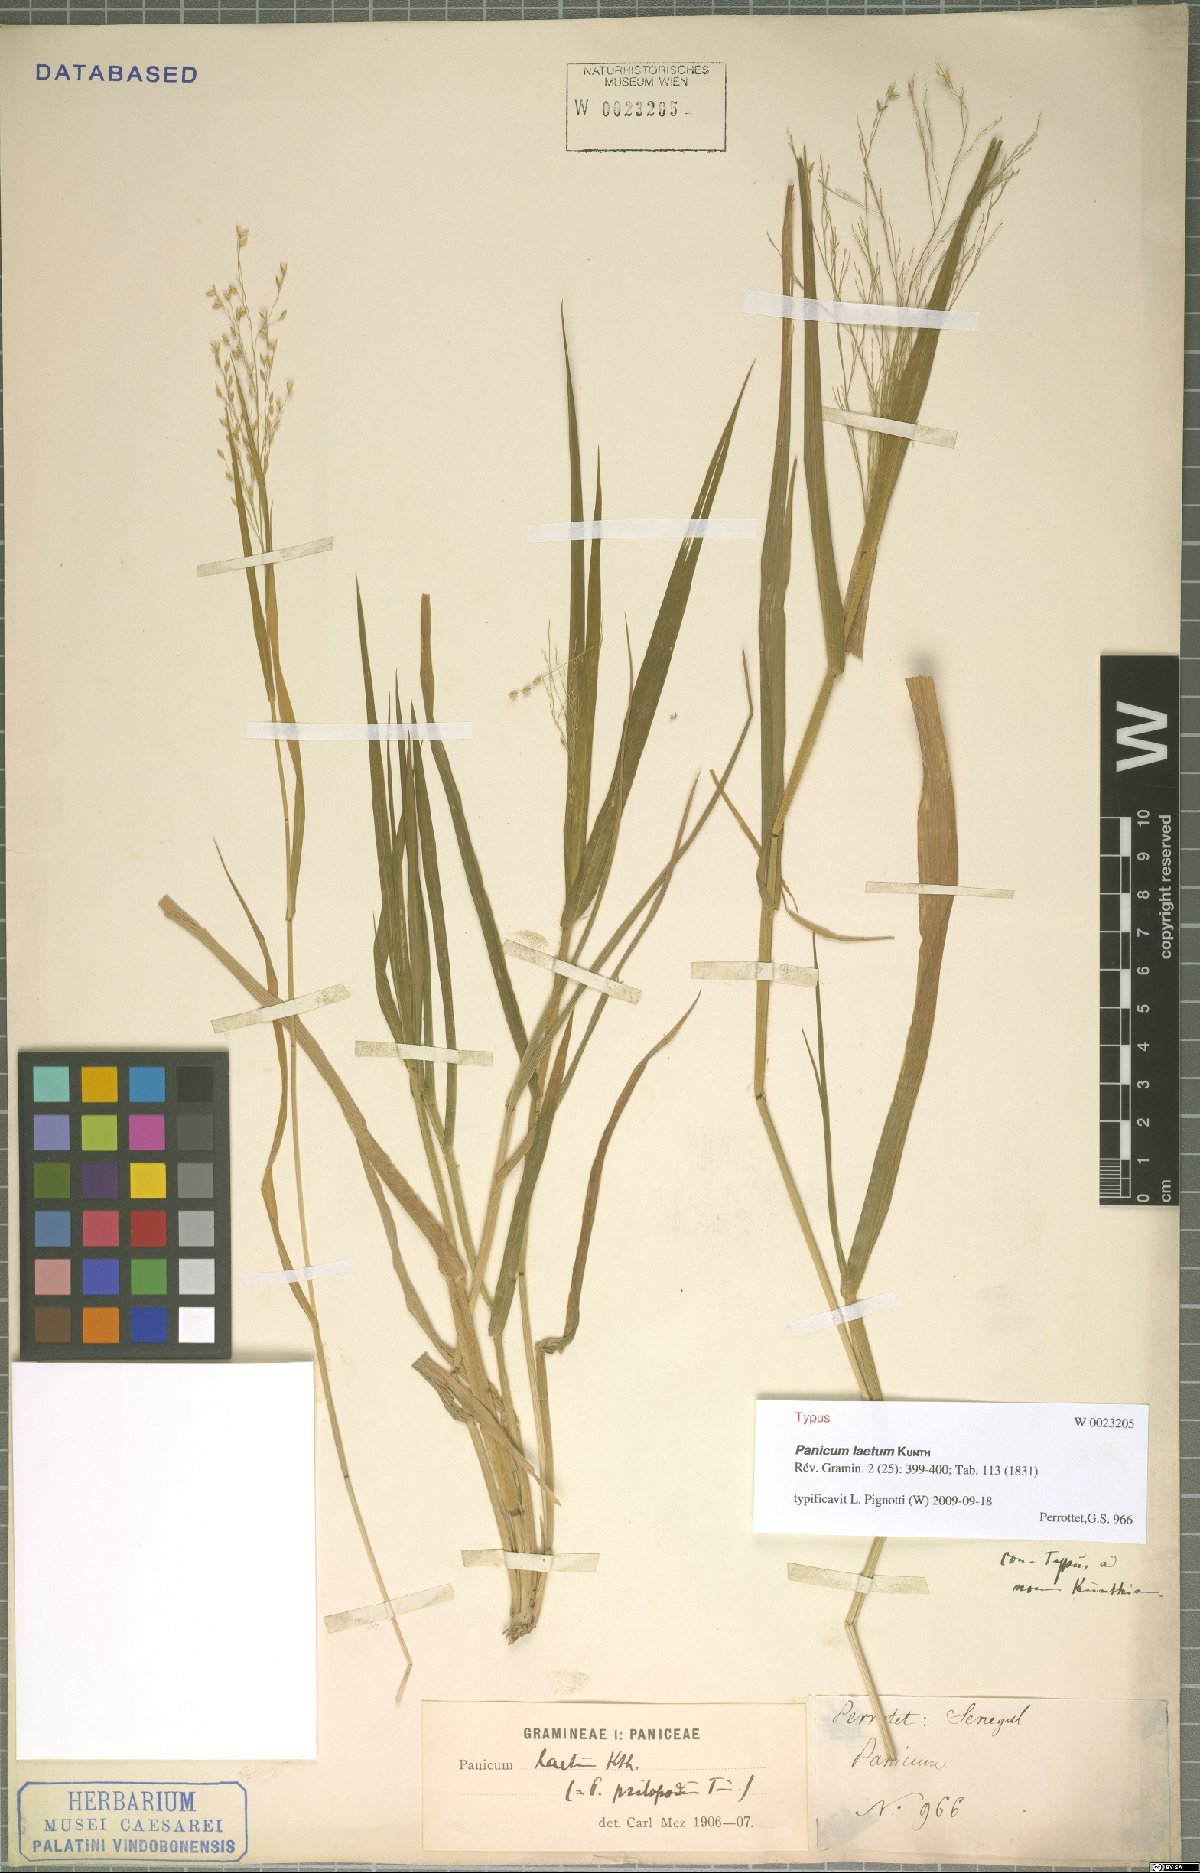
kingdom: Plantae
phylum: Tracheophyta
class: Liliopsida
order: Poales
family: Poaceae
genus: Panicum
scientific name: Panicum laetum
